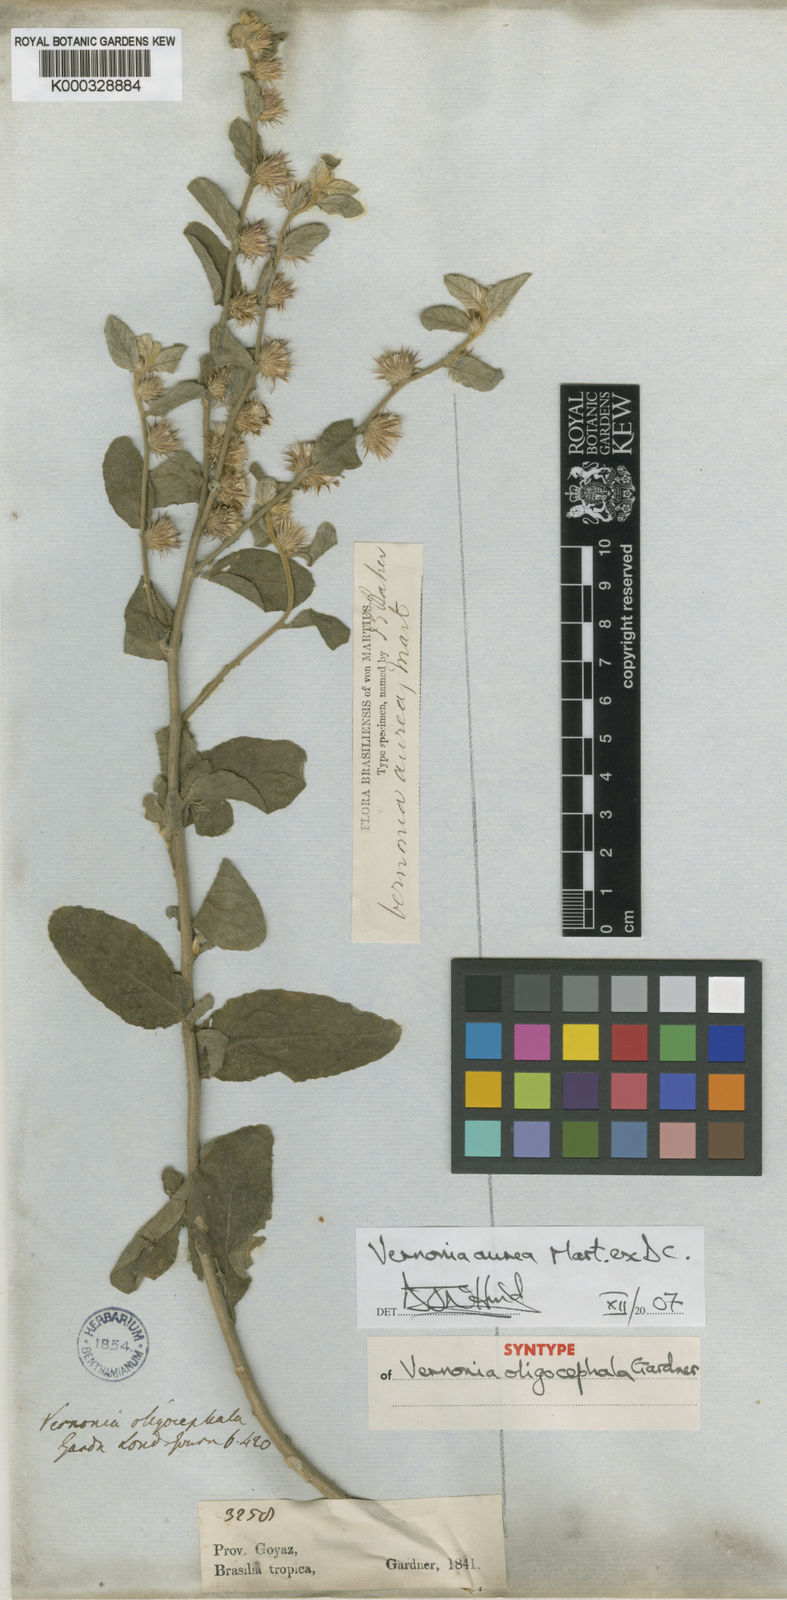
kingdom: Plantae
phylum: Tracheophyta
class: Magnoliopsida
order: Asterales
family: Asteraceae
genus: Lepidaploa
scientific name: Lepidaploa aurea
